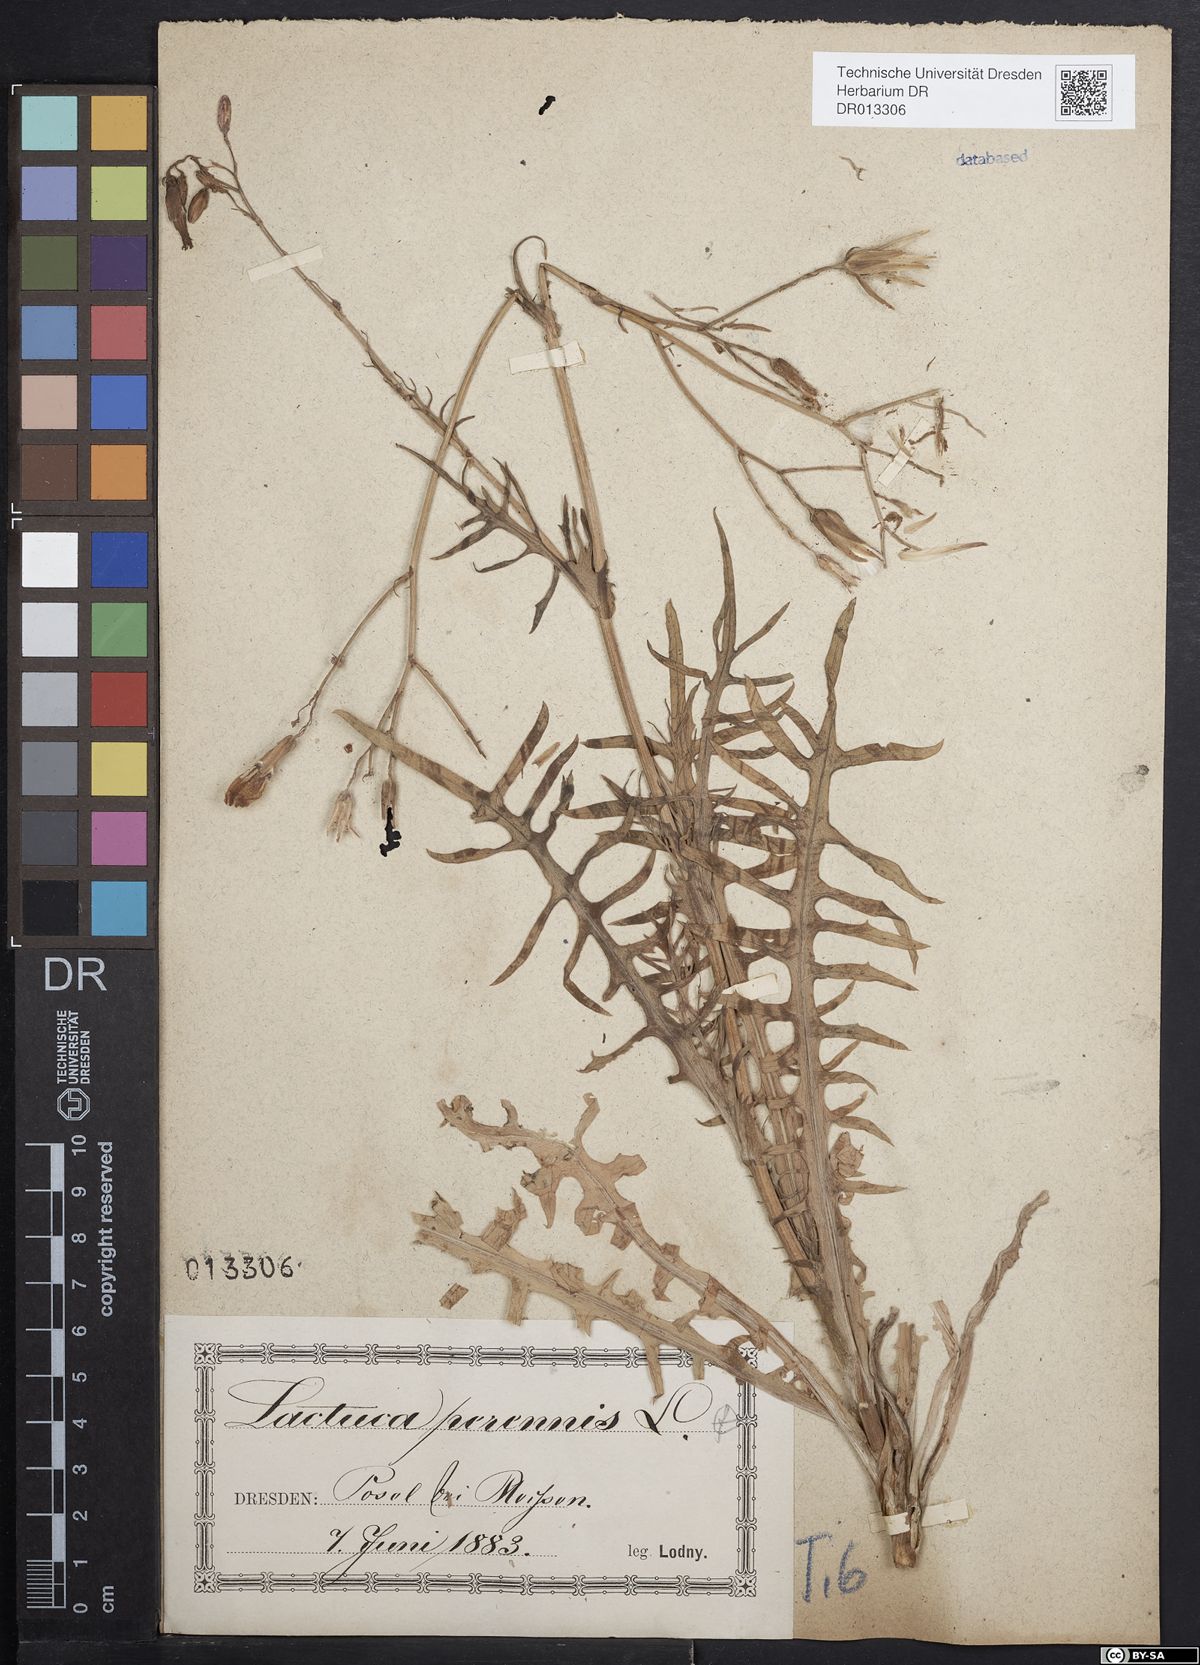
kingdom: Plantae
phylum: Tracheophyta
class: Magnoliopsida
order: Asterales
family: Asteraceae
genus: Lactuca
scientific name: Lactuca perennis
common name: Mountain lettuce
